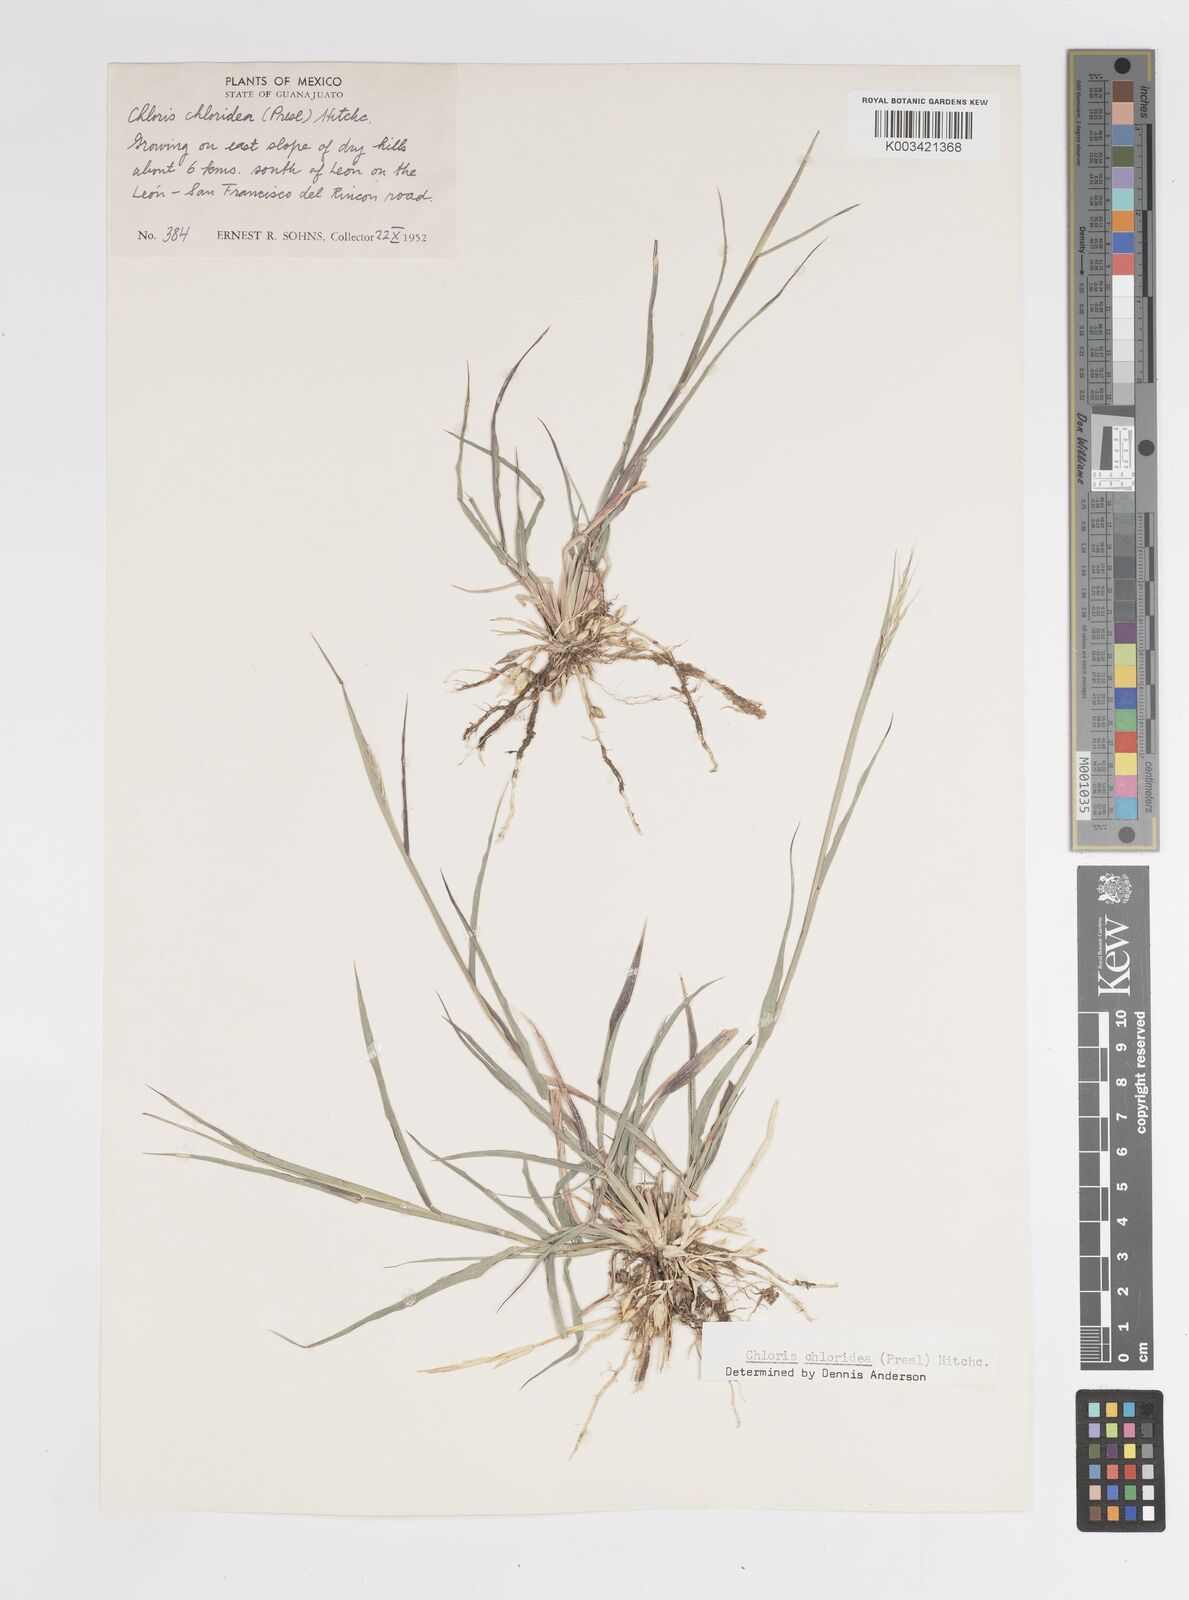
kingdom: Plantae
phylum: Tracheophyta
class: Liliopsida
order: Poales
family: Poaceae
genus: Tetrapogon
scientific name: Tetrapogon chlorideus
